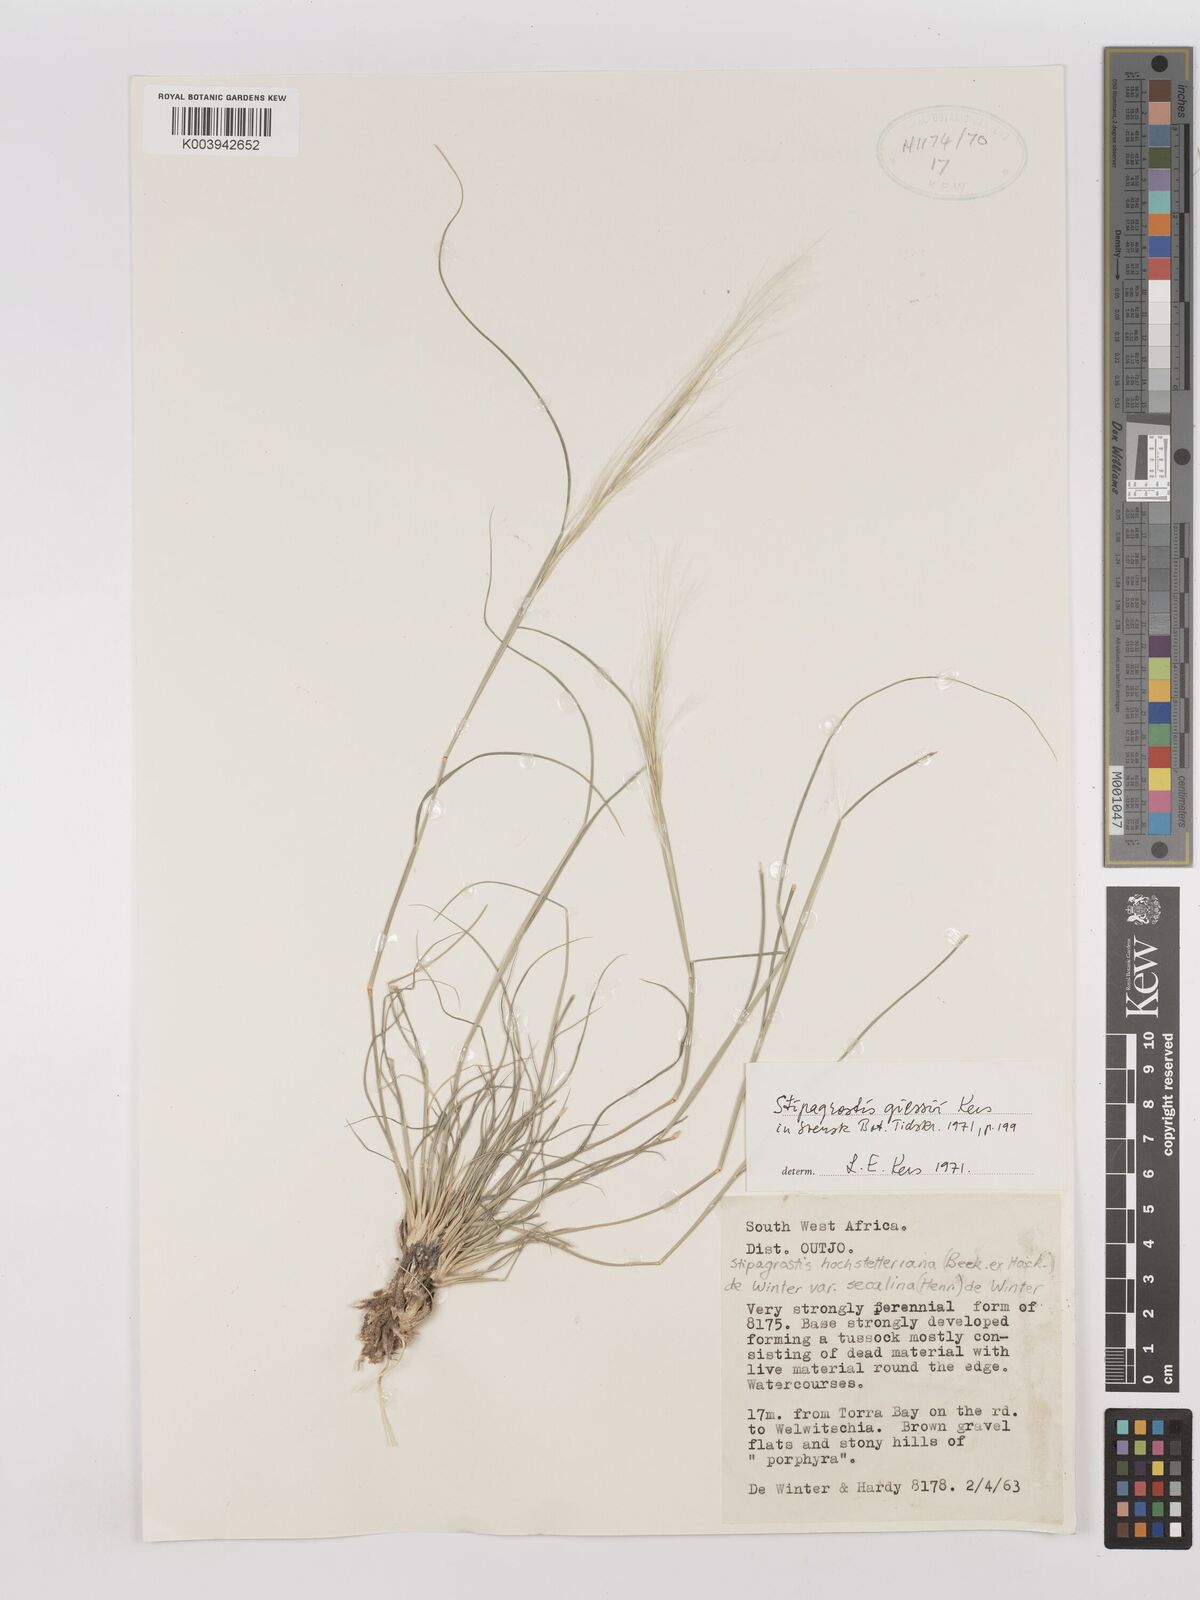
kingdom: Plantae
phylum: Tracheophyta
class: Liliopsida
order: Poales
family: Poaceae
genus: Stipagrostis
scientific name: Stipagrostis giessii
